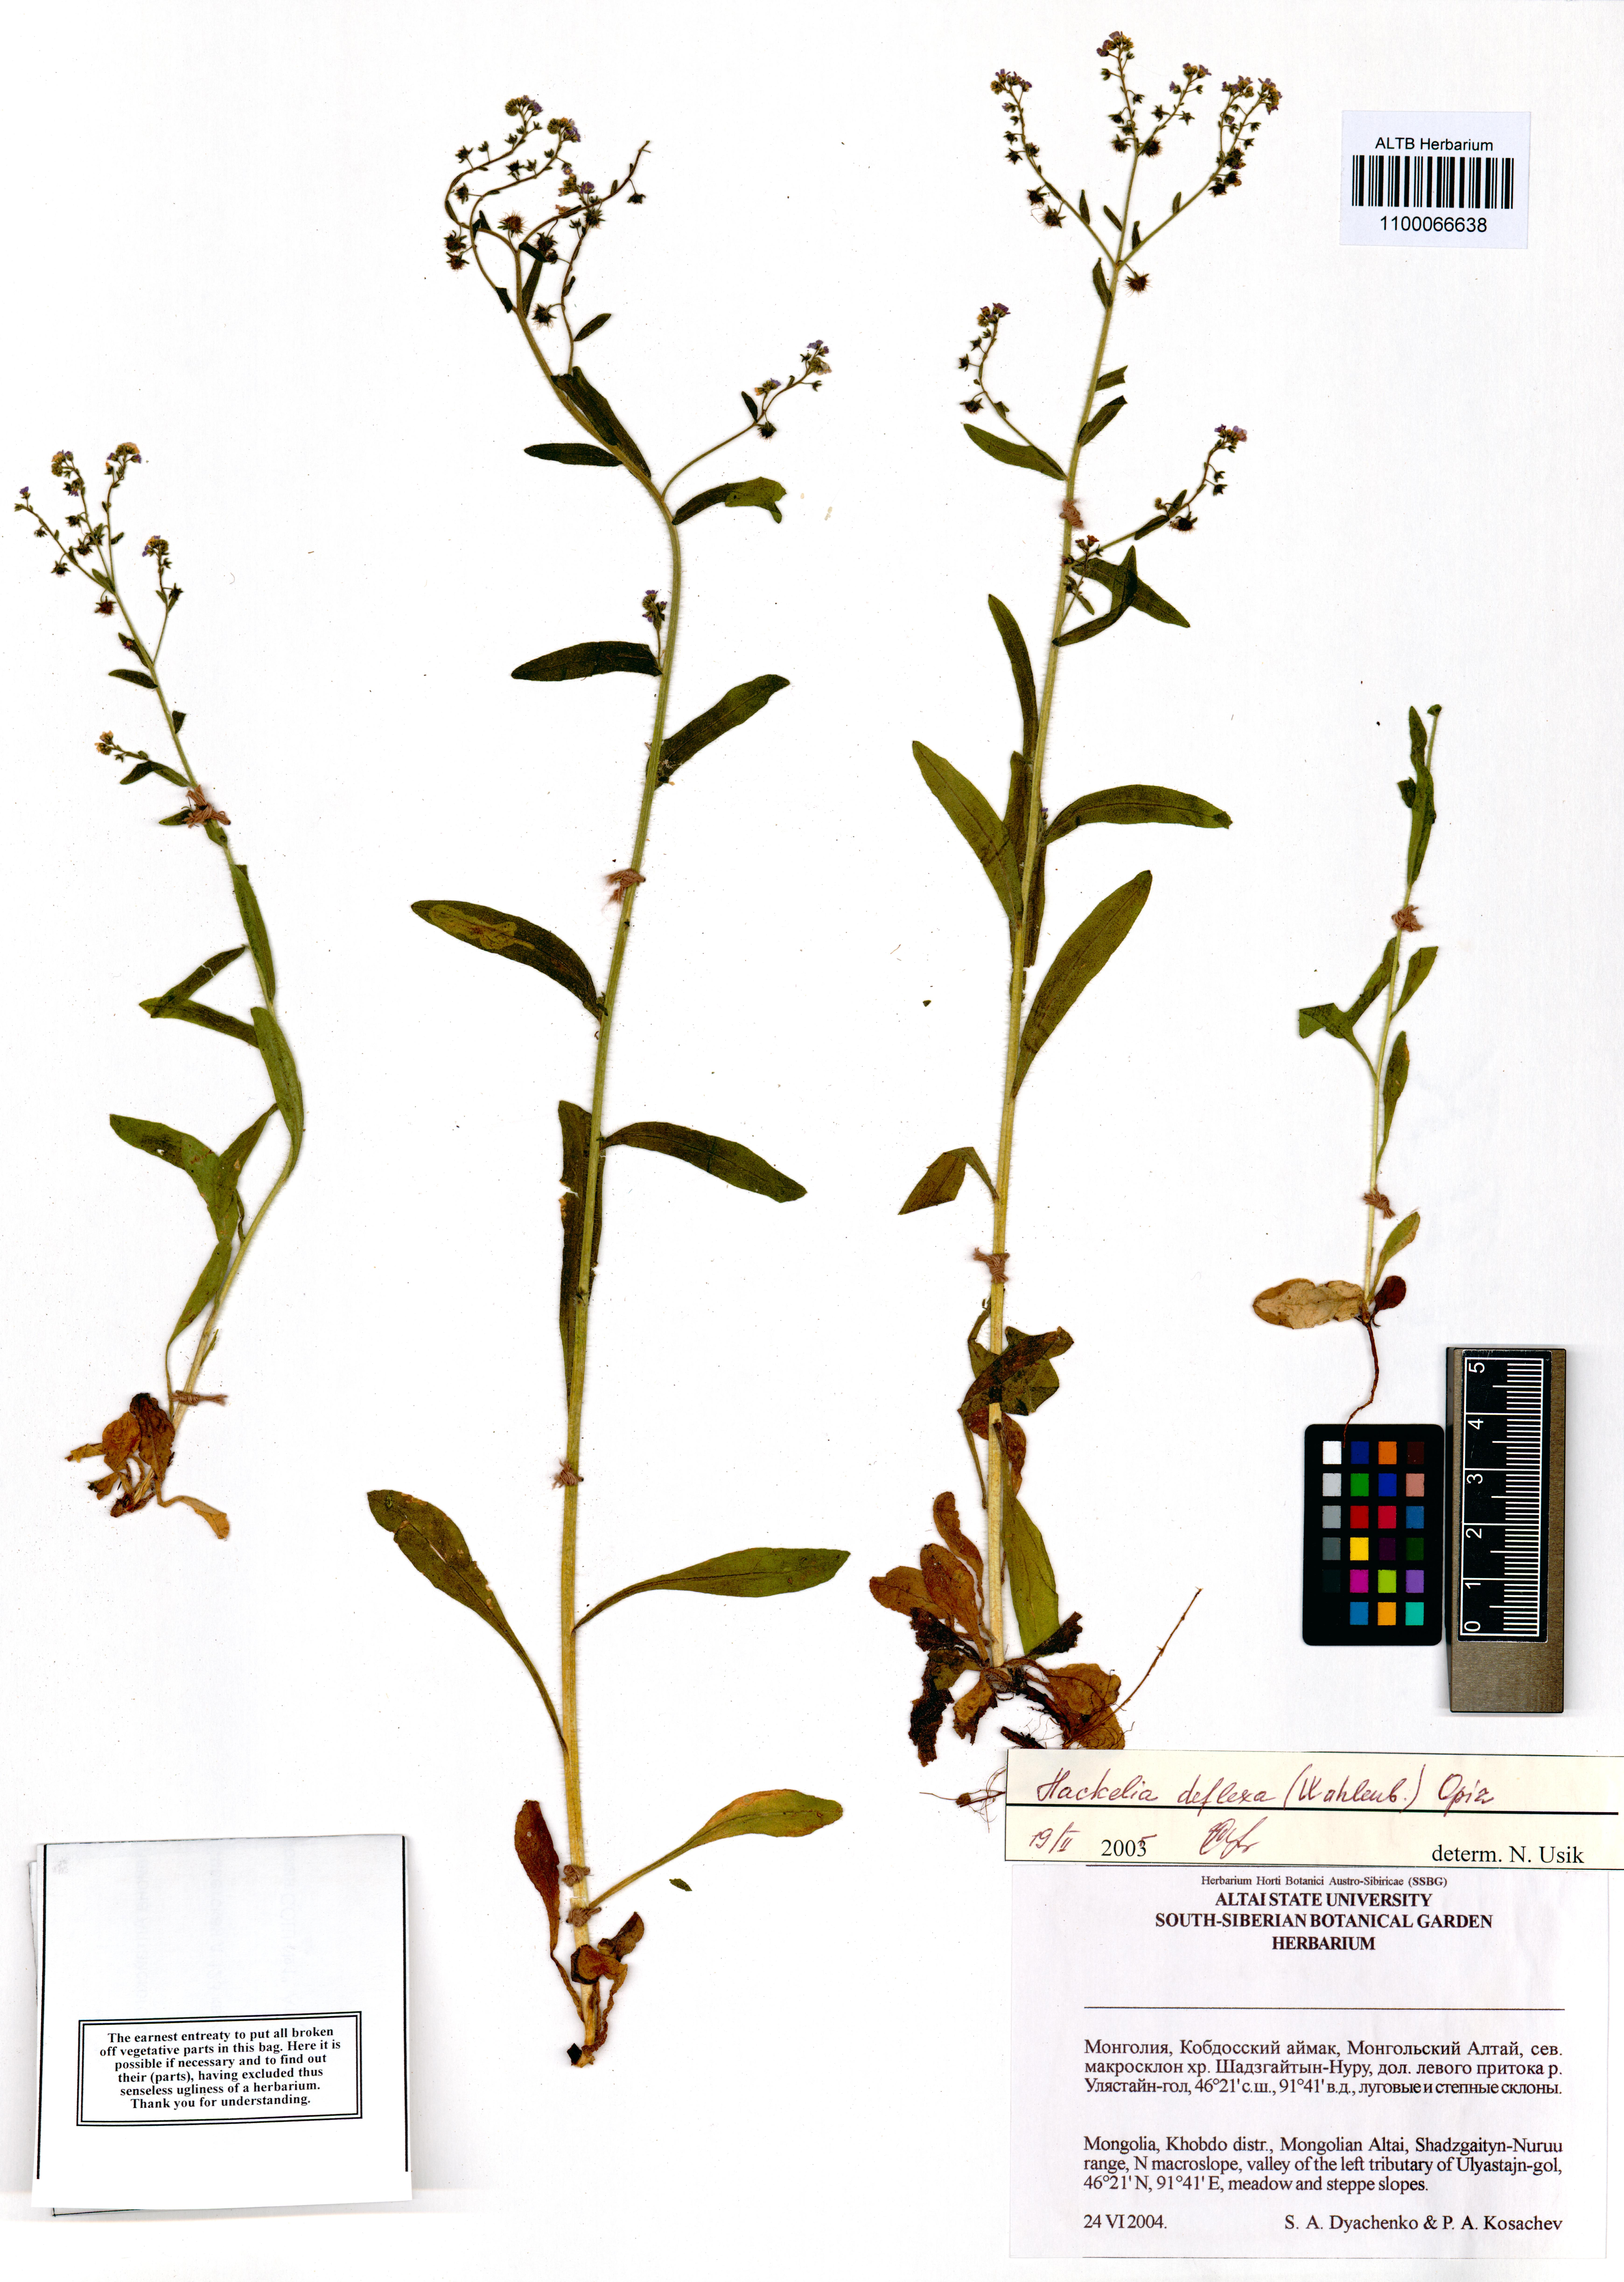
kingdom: Plantae
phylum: Tracheophyta
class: Magnoliopsida
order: Boraginales
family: Boraginaceae
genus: Hackelia
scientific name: Hackelia deflexa
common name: Nodding stickseed
